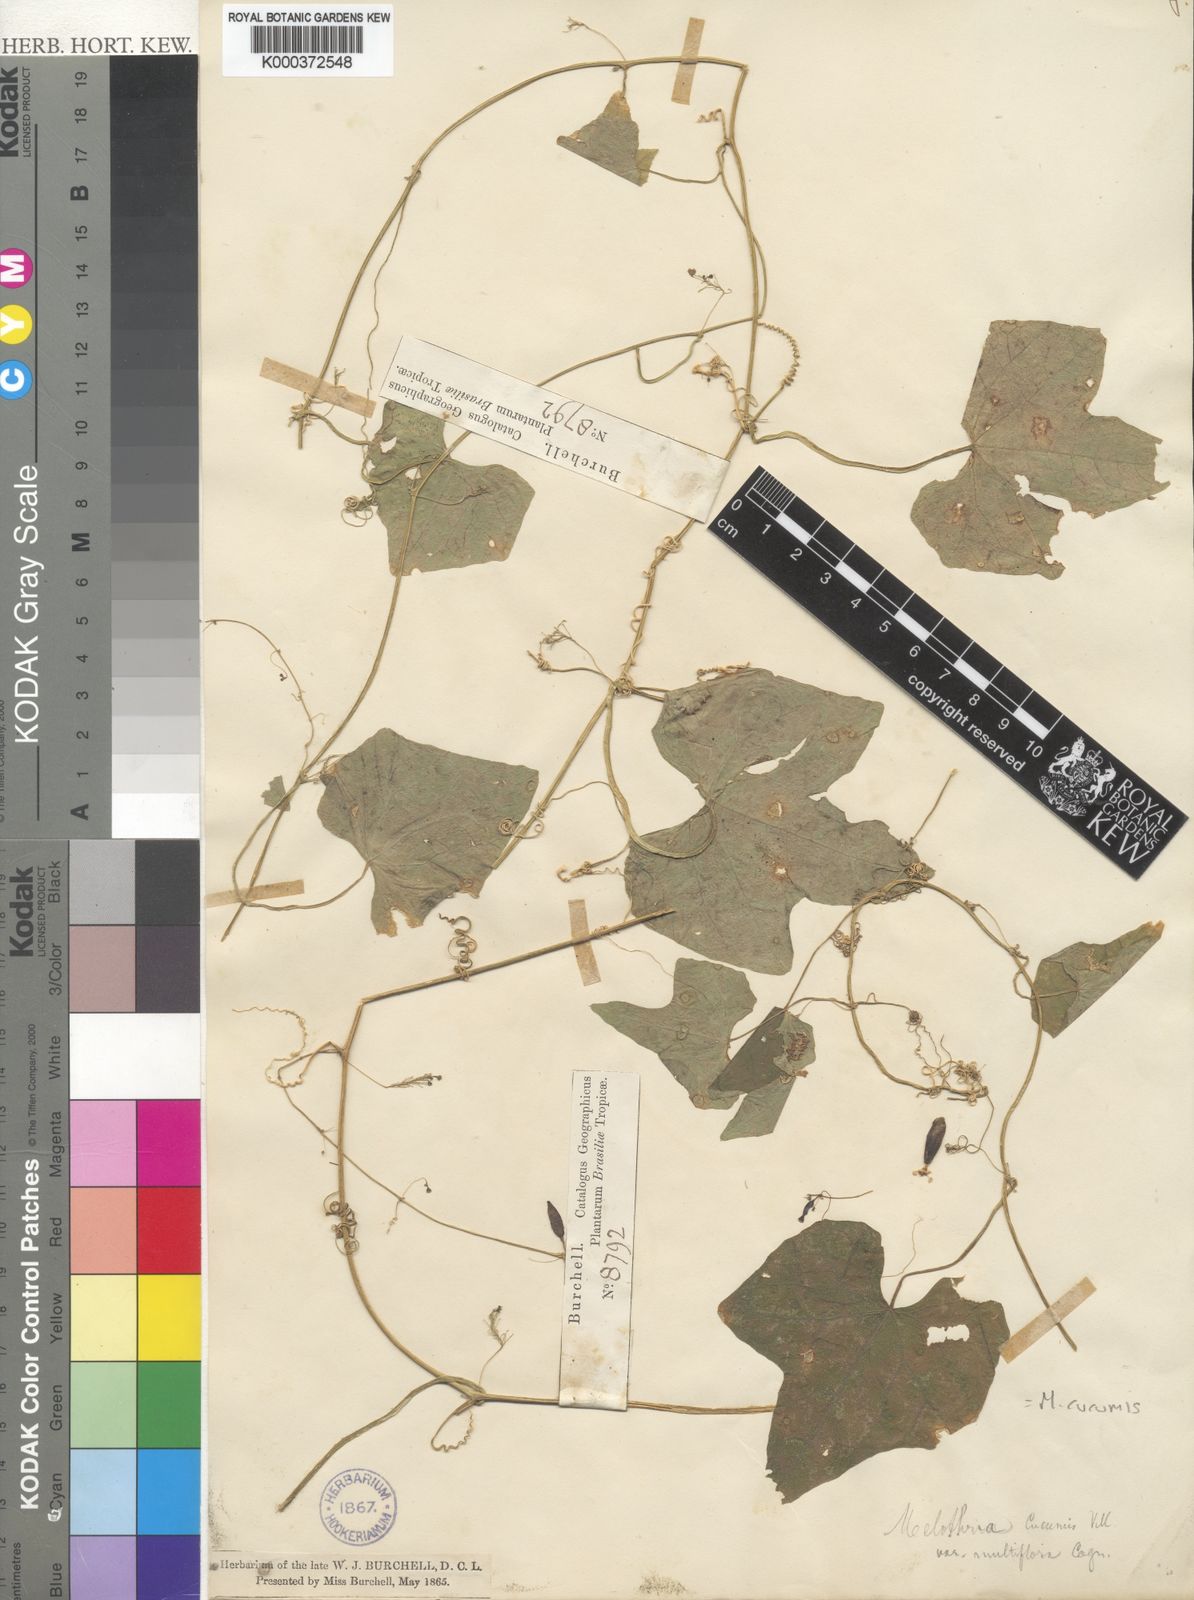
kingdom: Plantae
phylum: Tracheophyta
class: Magnoliopsida
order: Cucurbitales
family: Cucurbitaceae
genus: Melothria
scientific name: Melothria cucumis
